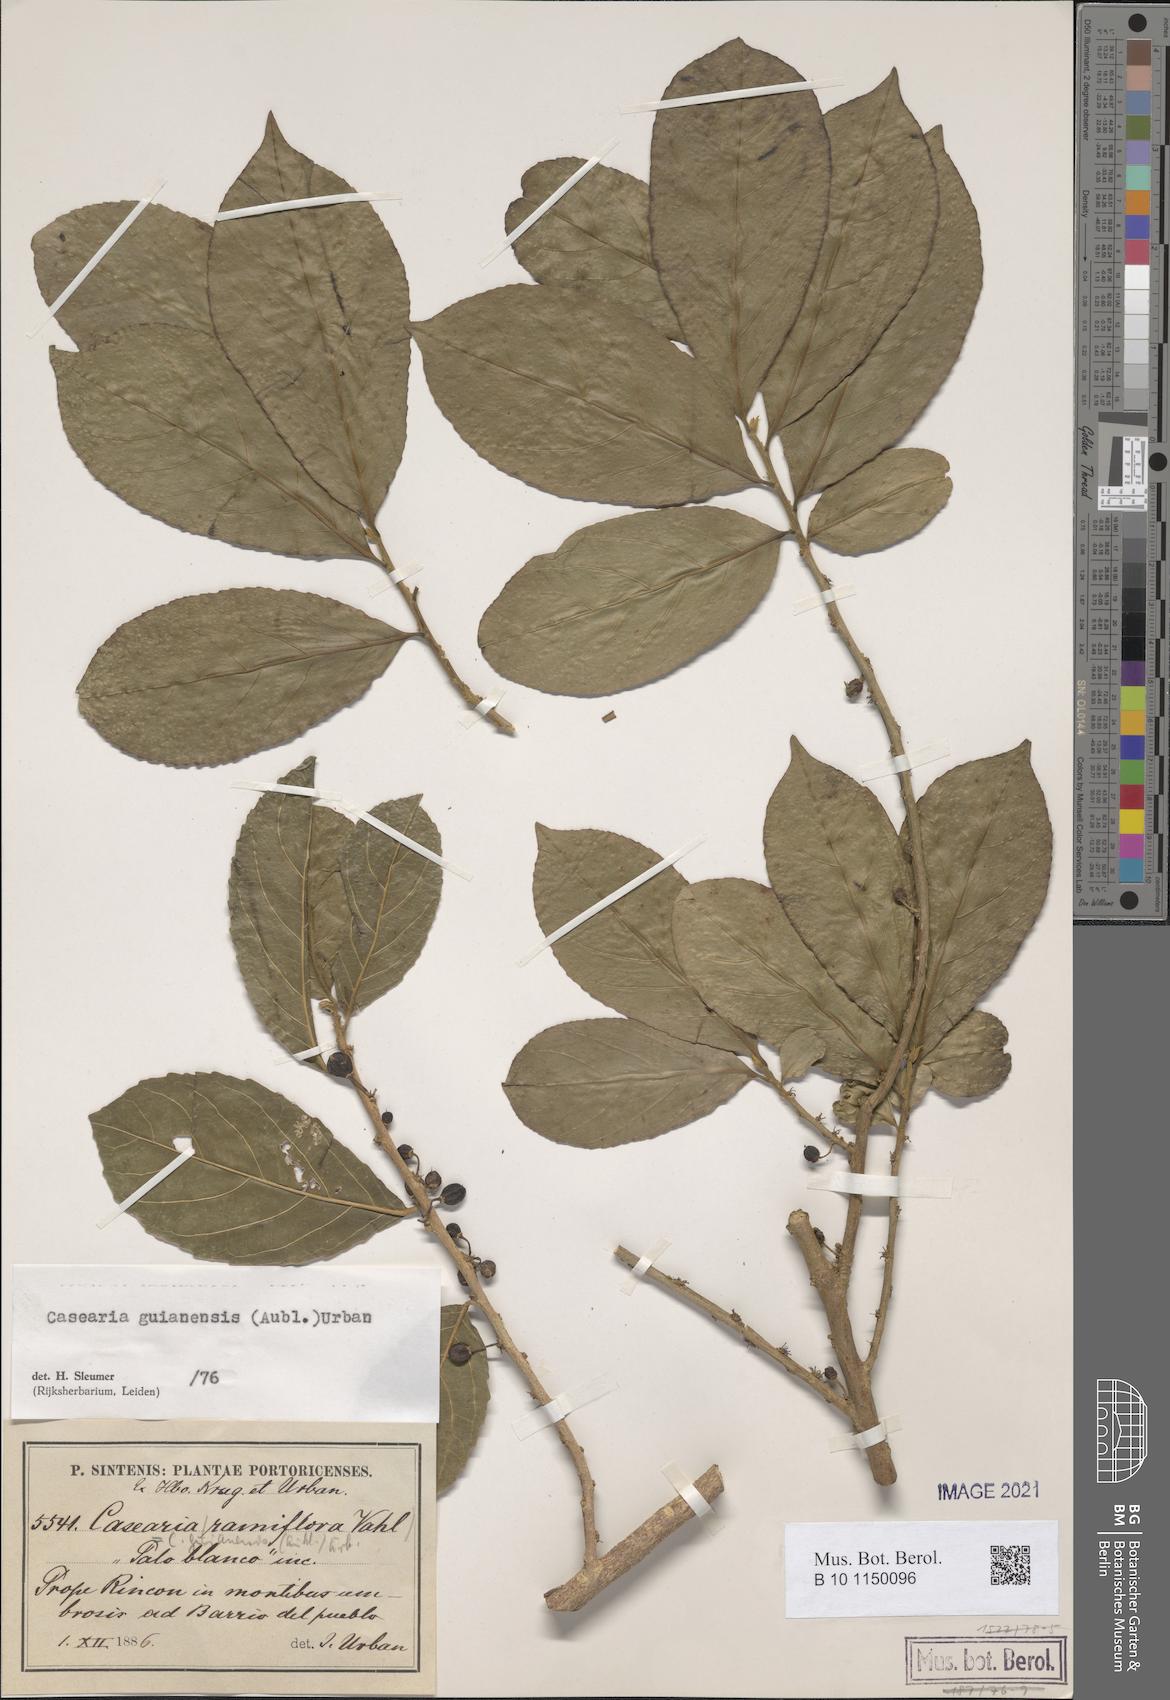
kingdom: Plantae
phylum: Tracheophyta
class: Magnoliopsida
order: Malpighiales
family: Salicaceae
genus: Casearia
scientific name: Casearia guianensis
